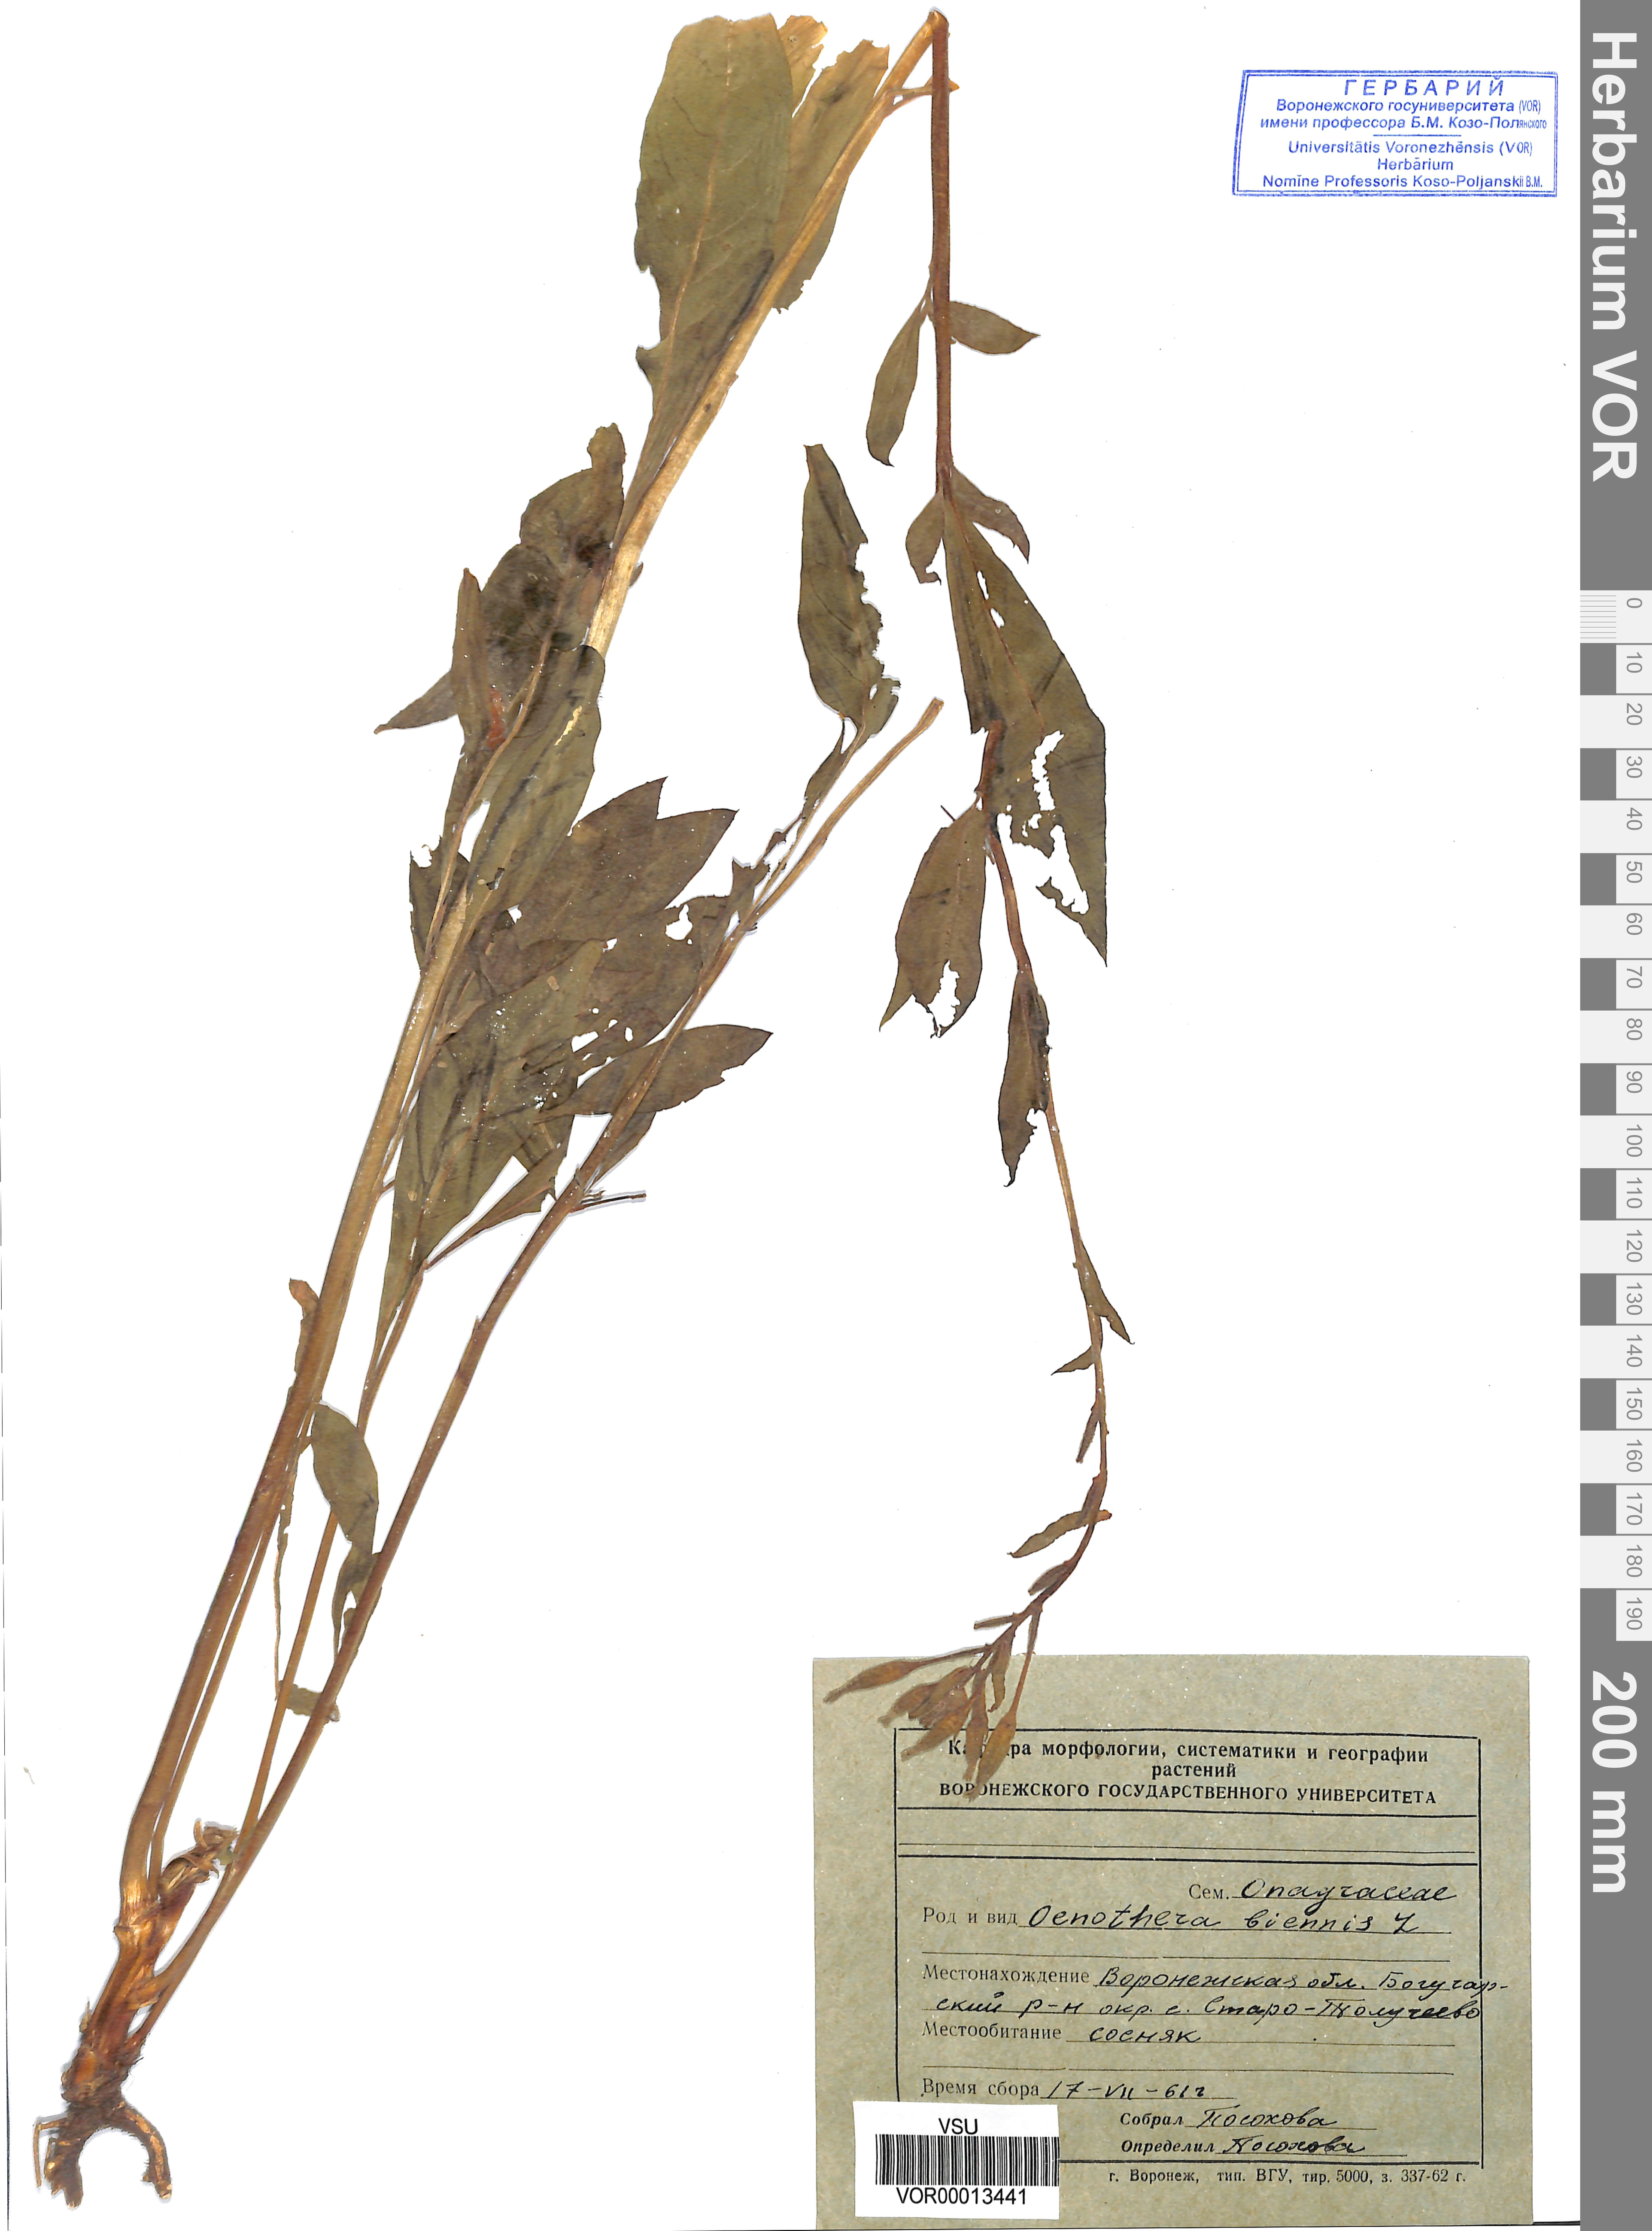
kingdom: Plantae
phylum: Tracheophyta
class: Magnoliopsida
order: Myrtales
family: Onagraceae
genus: Oenothera
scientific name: Oenothera biennis
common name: Common evening-primrose
